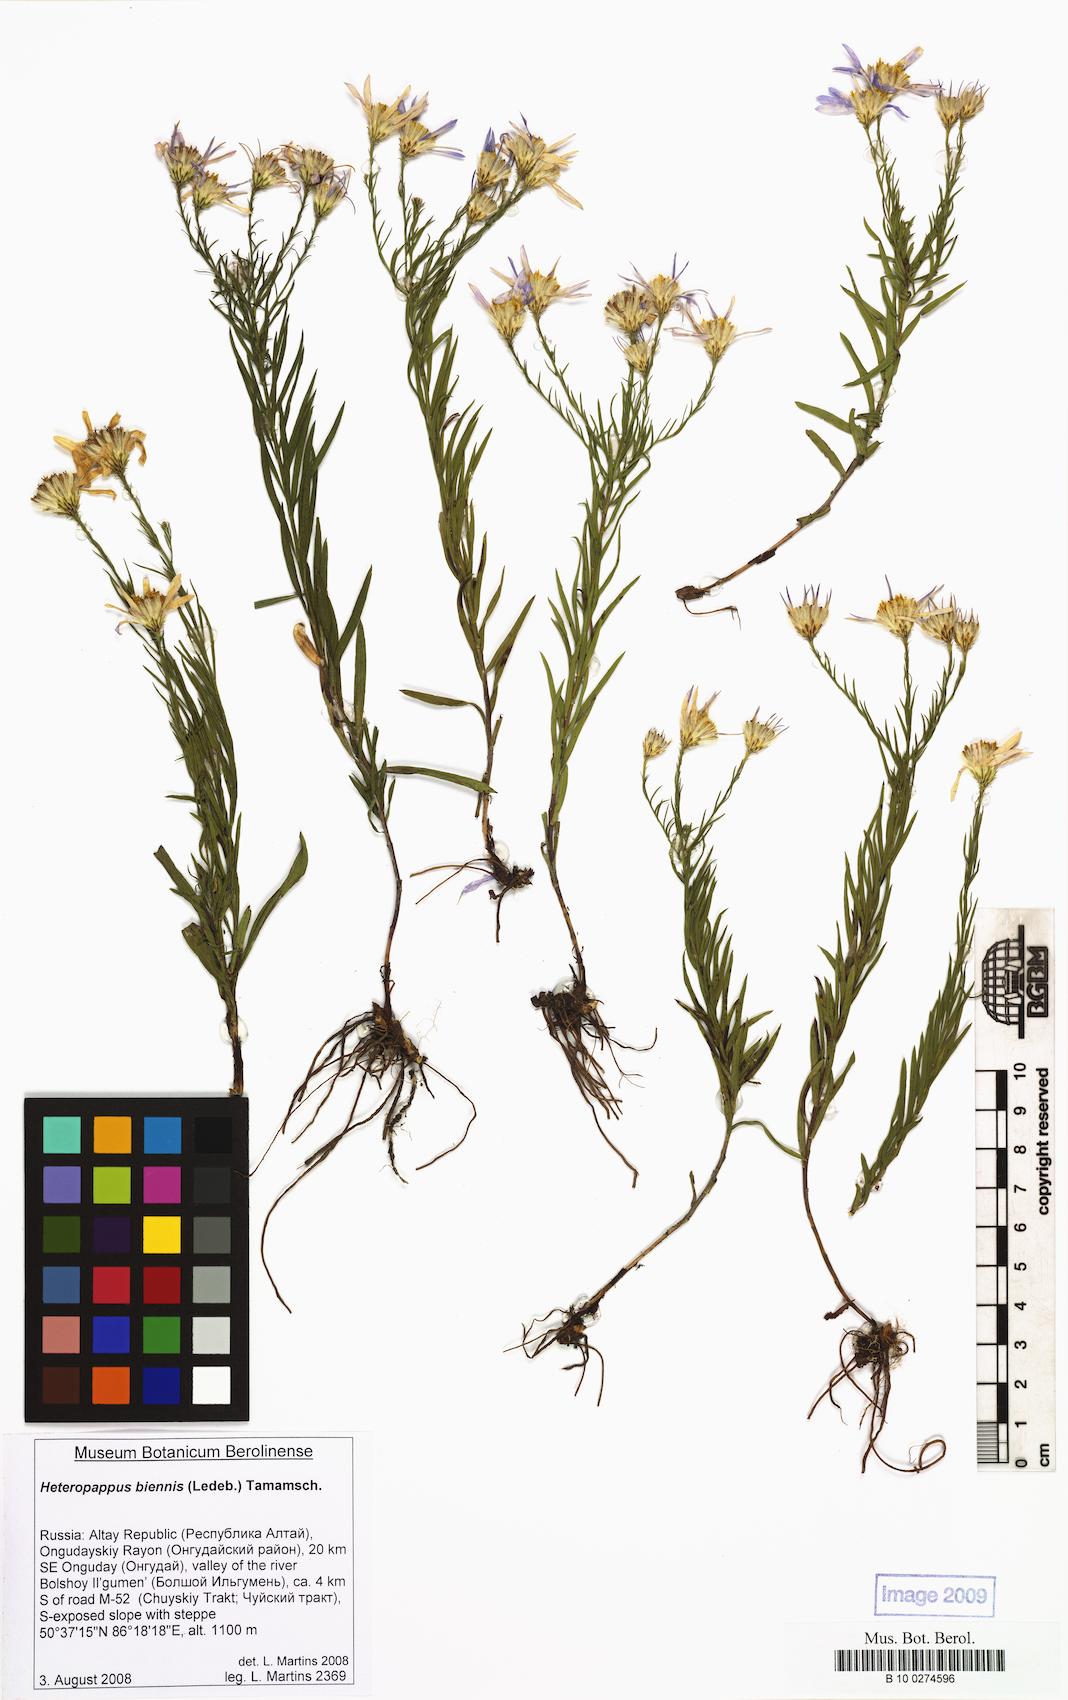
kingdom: Plantae
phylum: Tracheophyta
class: Magnoliopsida
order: Asterales
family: Asteraceae
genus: Heteropappus
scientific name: Heteropappus biennis
